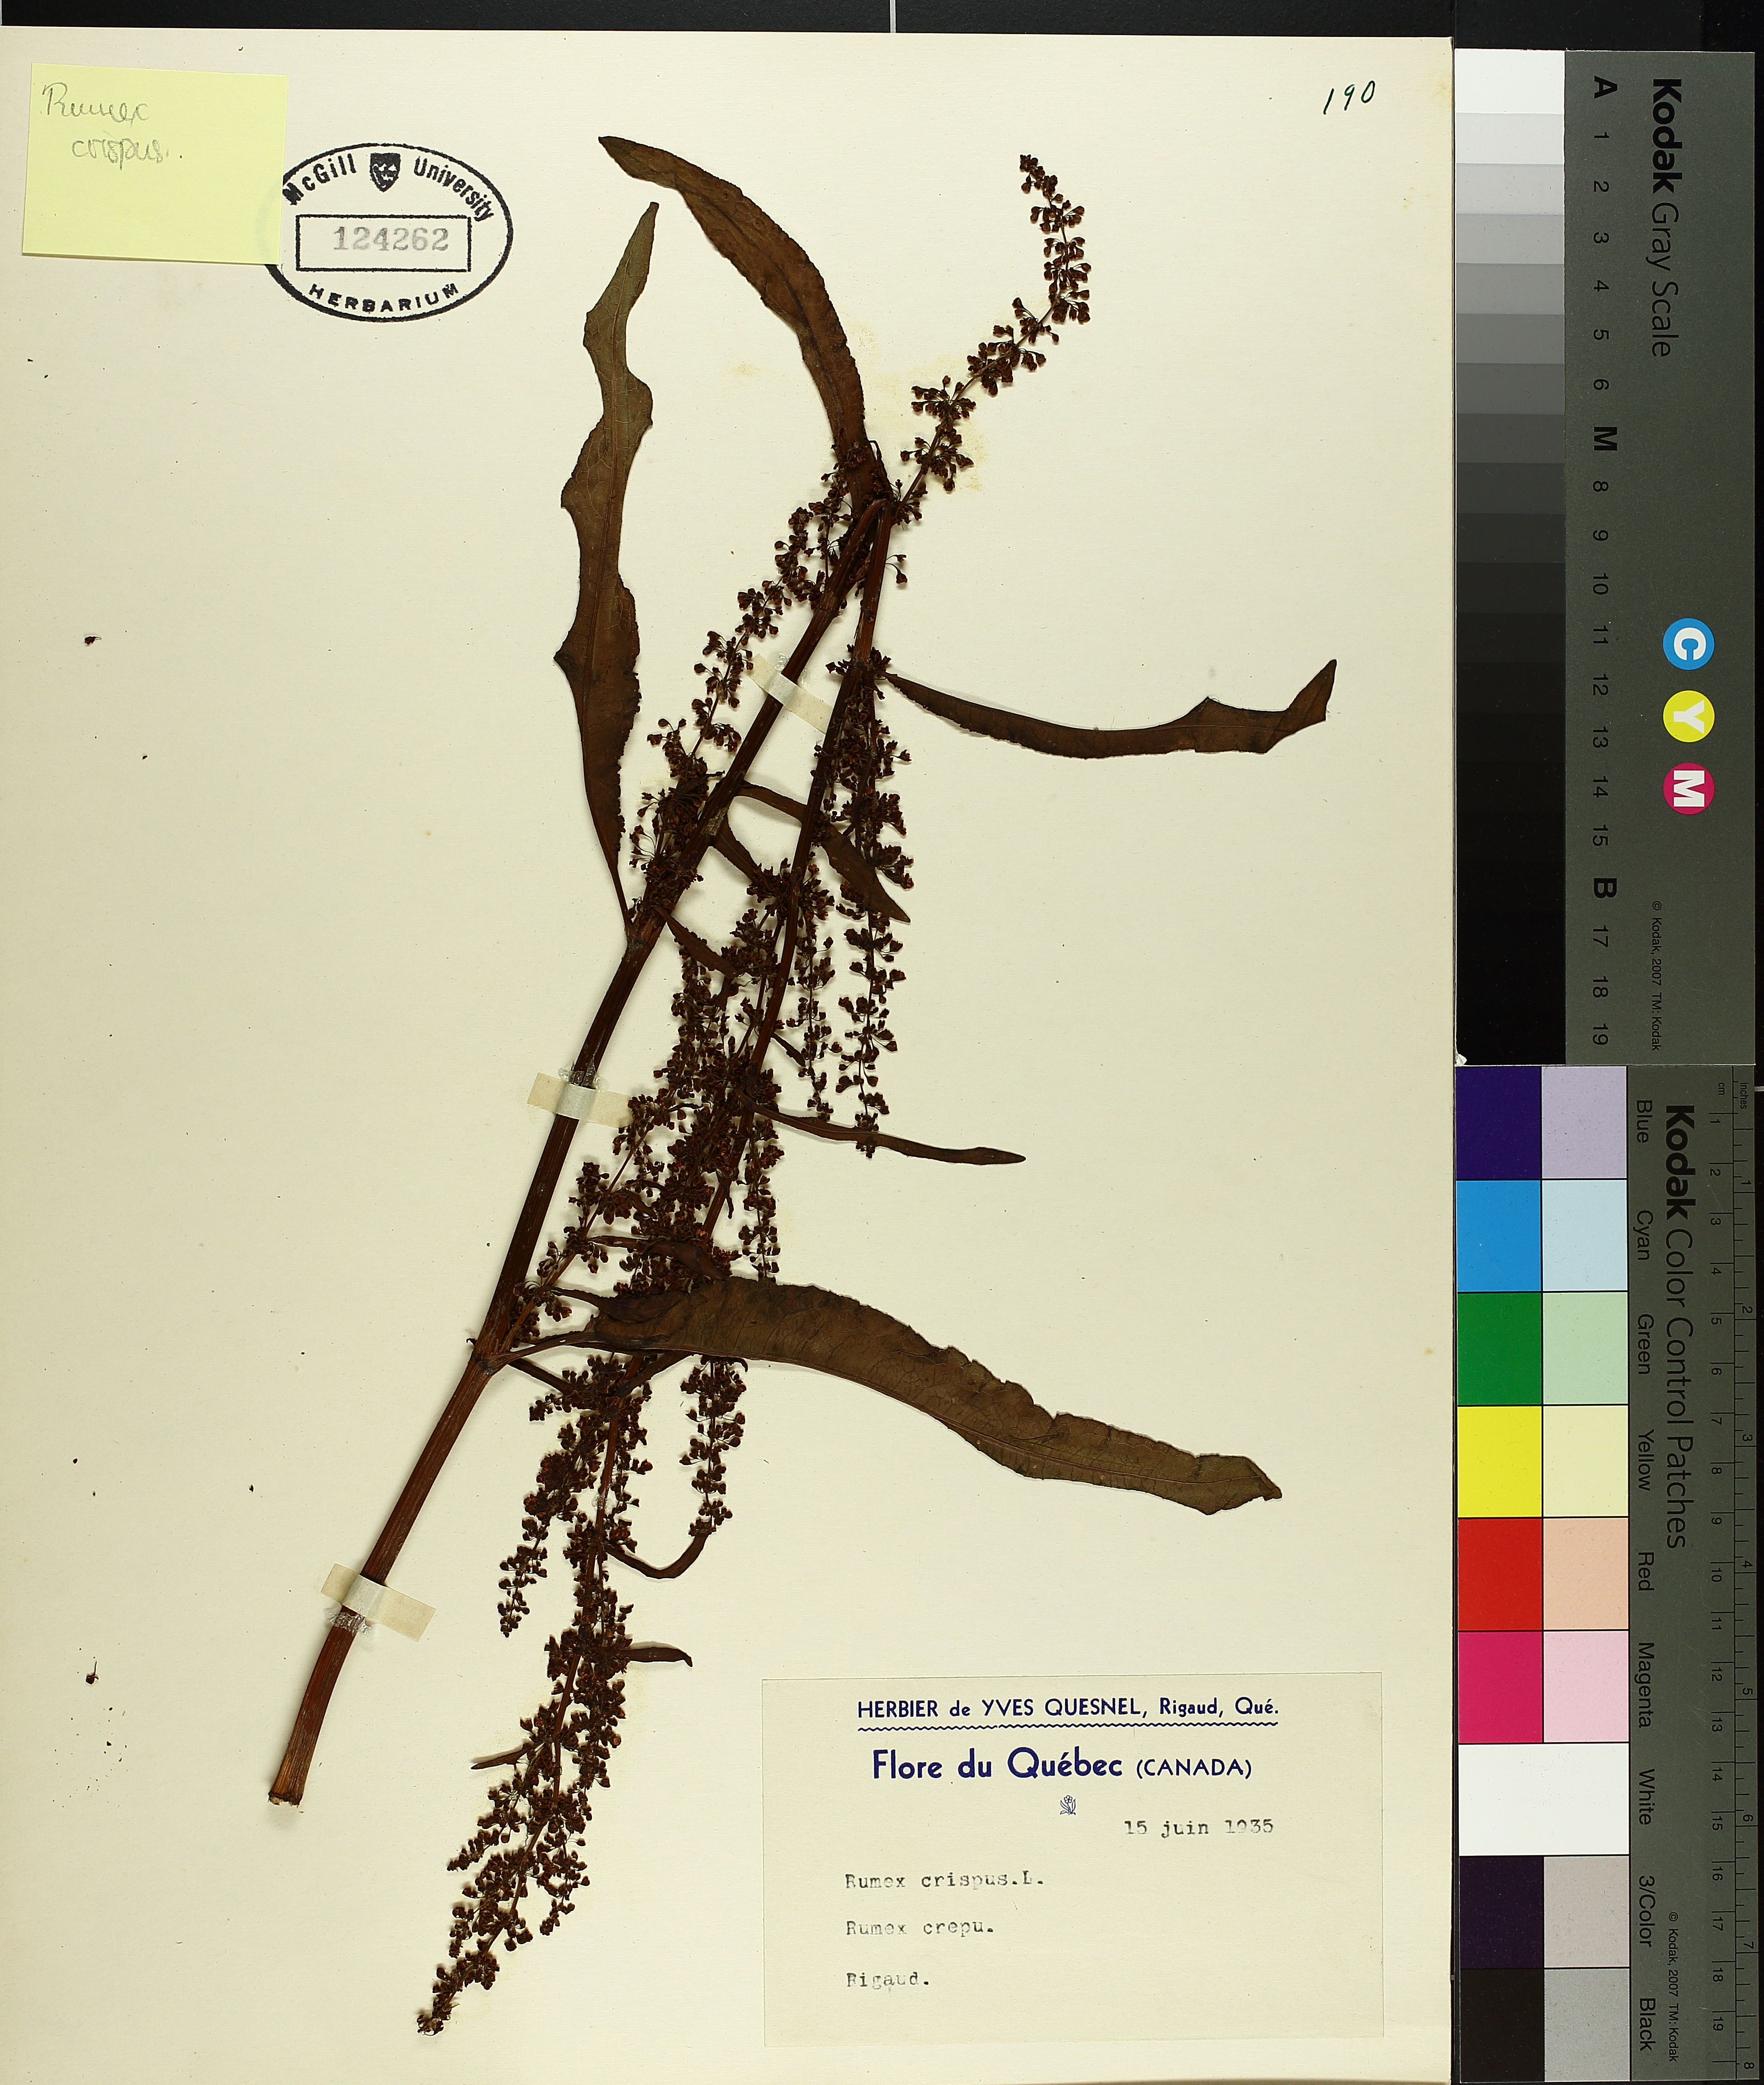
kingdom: Plantae
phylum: Tracheophyta
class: Magnoliopsida
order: Caryophyllales
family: Polygonaceae
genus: Rumex
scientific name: Rumex crispus
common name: Curled dock
